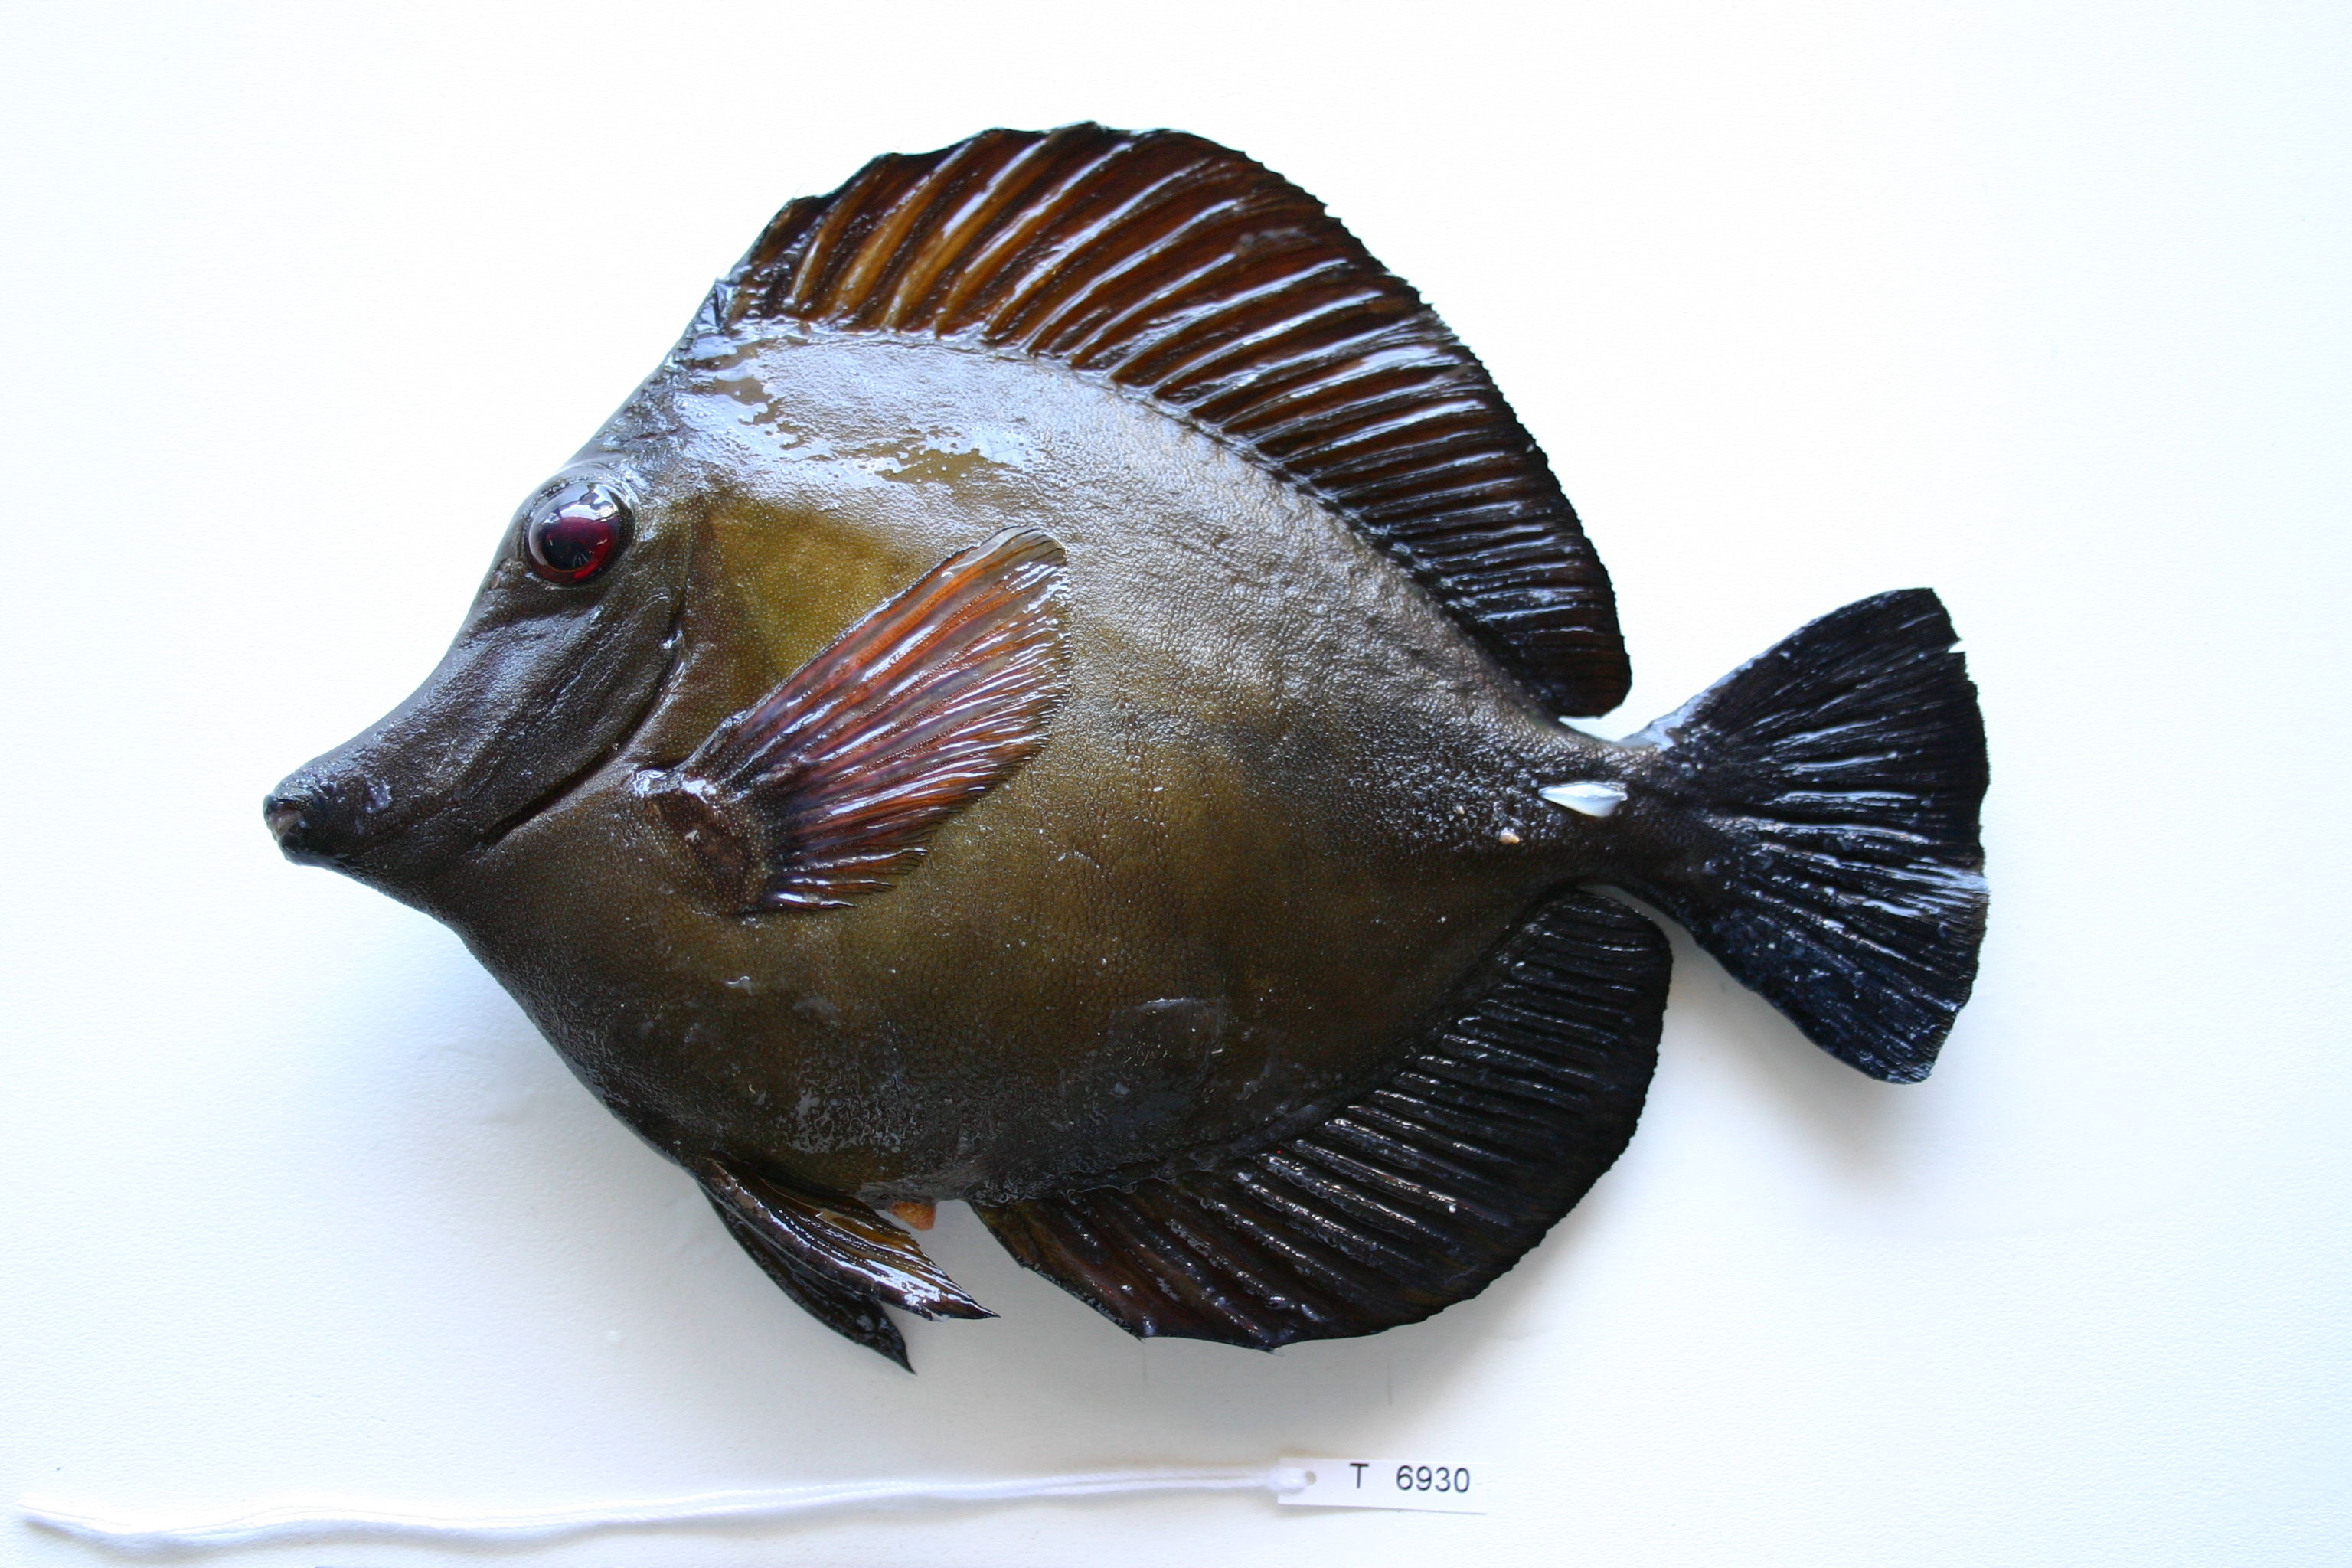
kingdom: Animalia
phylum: Chordata
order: Perciformes
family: Acanthuridae
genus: Zebrasoma
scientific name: Zebrasoma scopas
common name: Twotone tang
